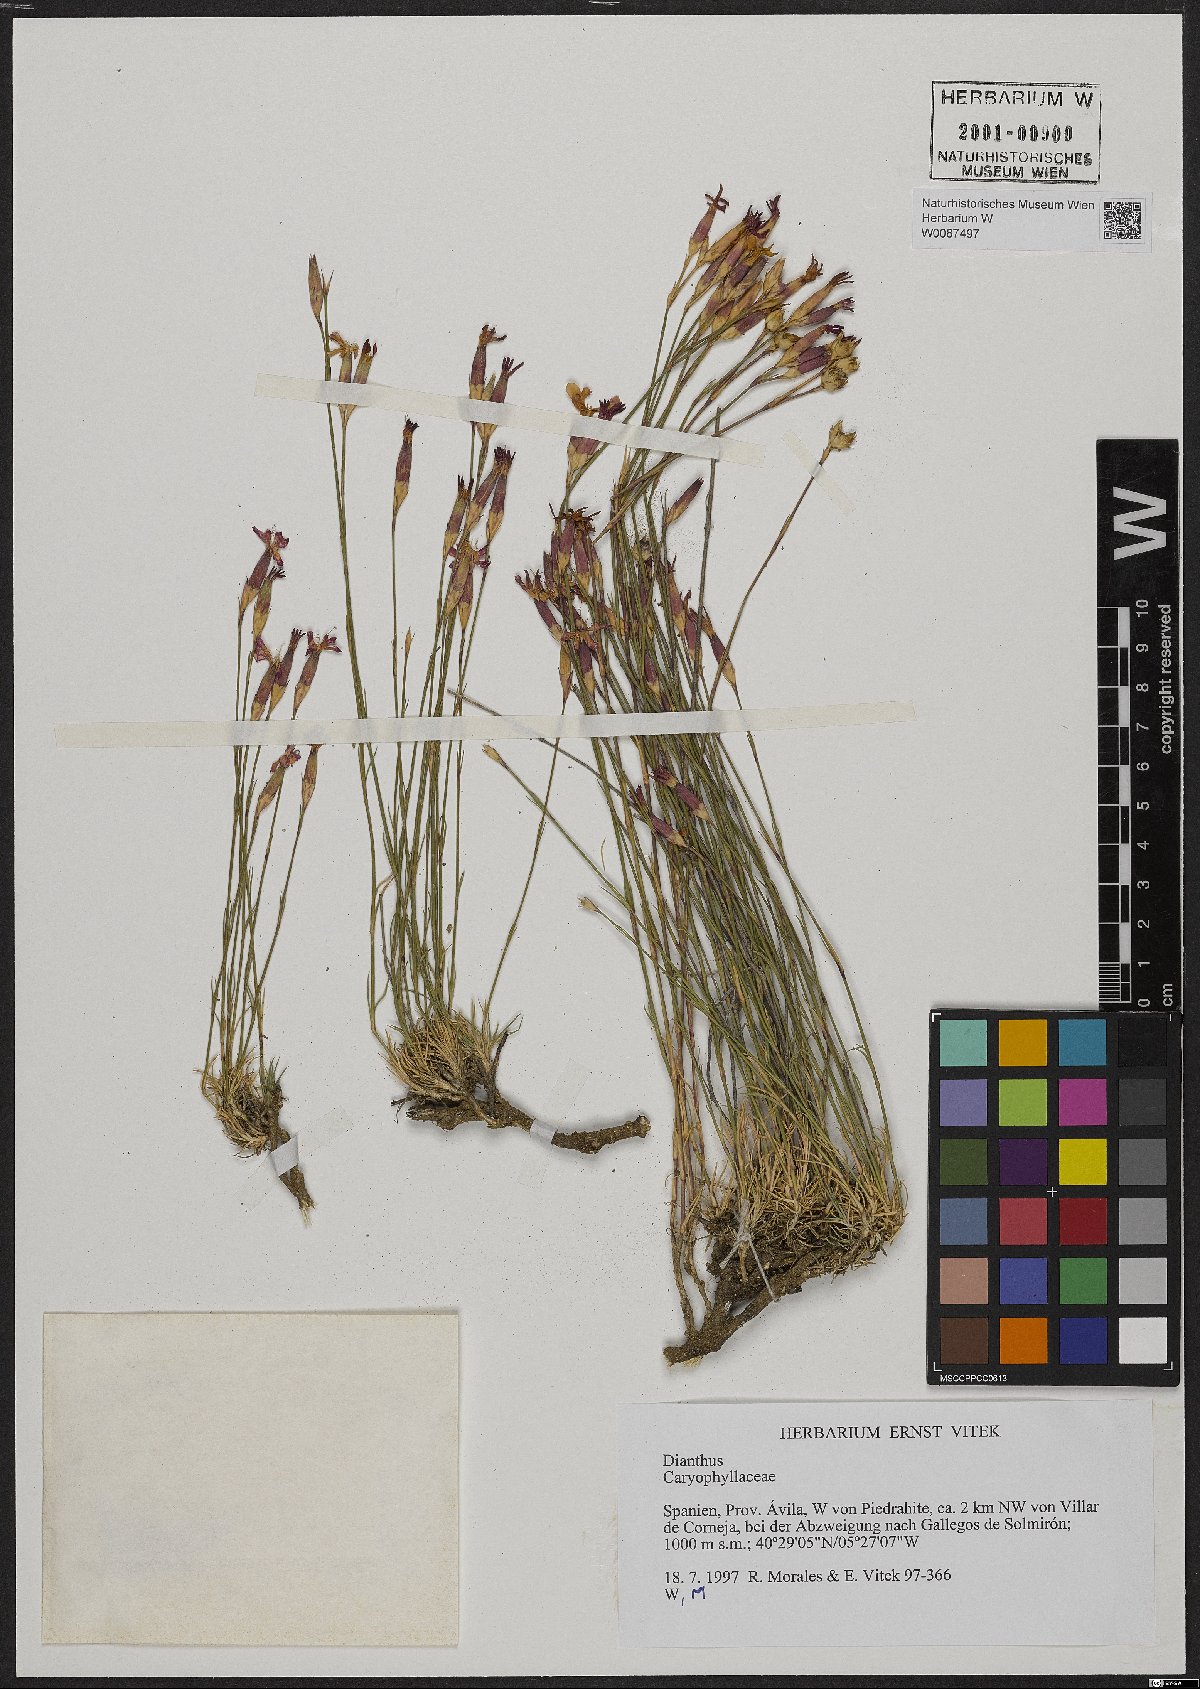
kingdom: Plantae
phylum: Tracheophyta
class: Magnoliopsida
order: Caryophyllales
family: Caryophyllaceae
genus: Dianthus
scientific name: Dianthus
